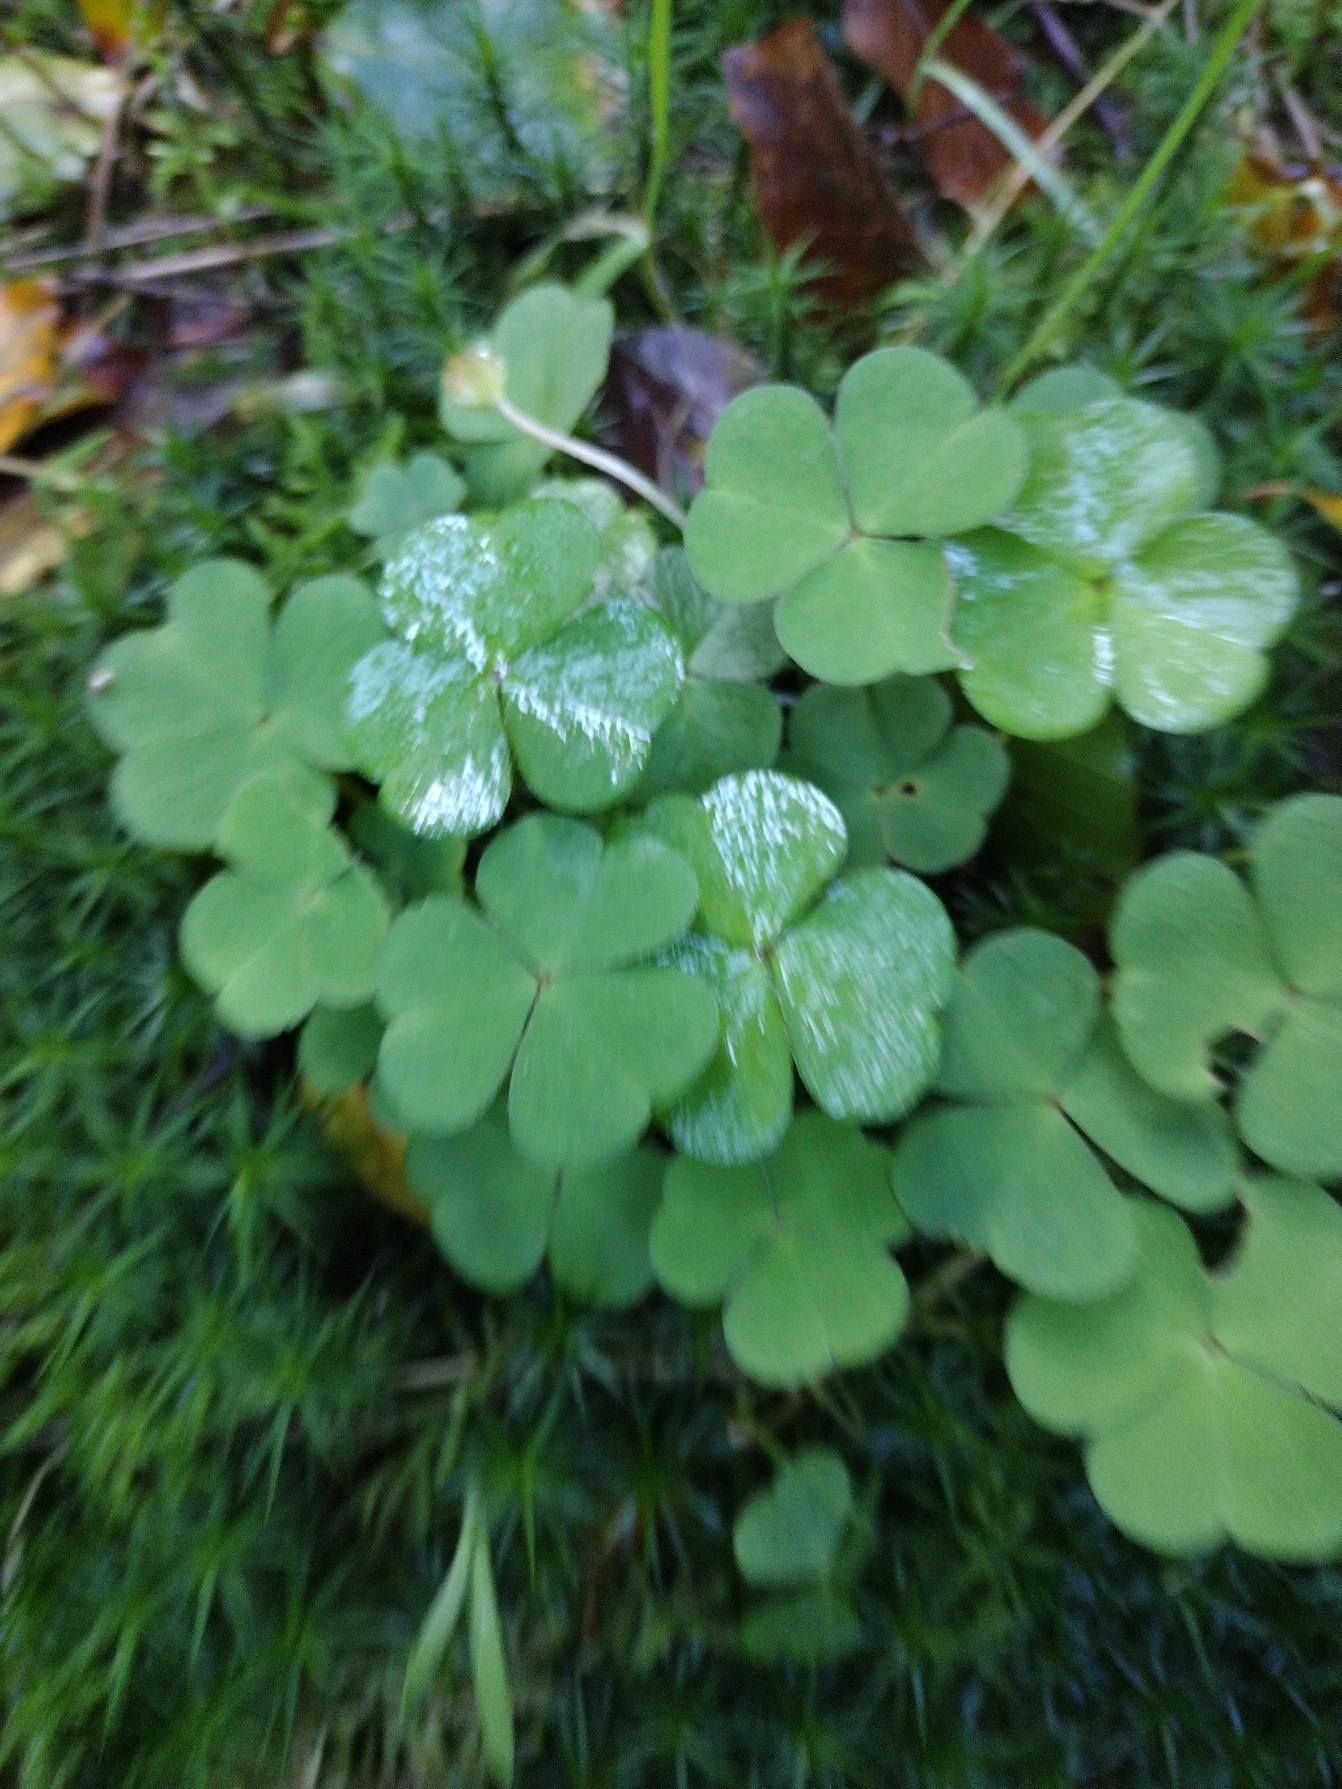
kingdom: Plantae
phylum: Tracheophyta
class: Magnoliopsida
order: Oxalidales
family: Oxalidaceae
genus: Oxalis
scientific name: Oxalis acetosella
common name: Skovsyre
